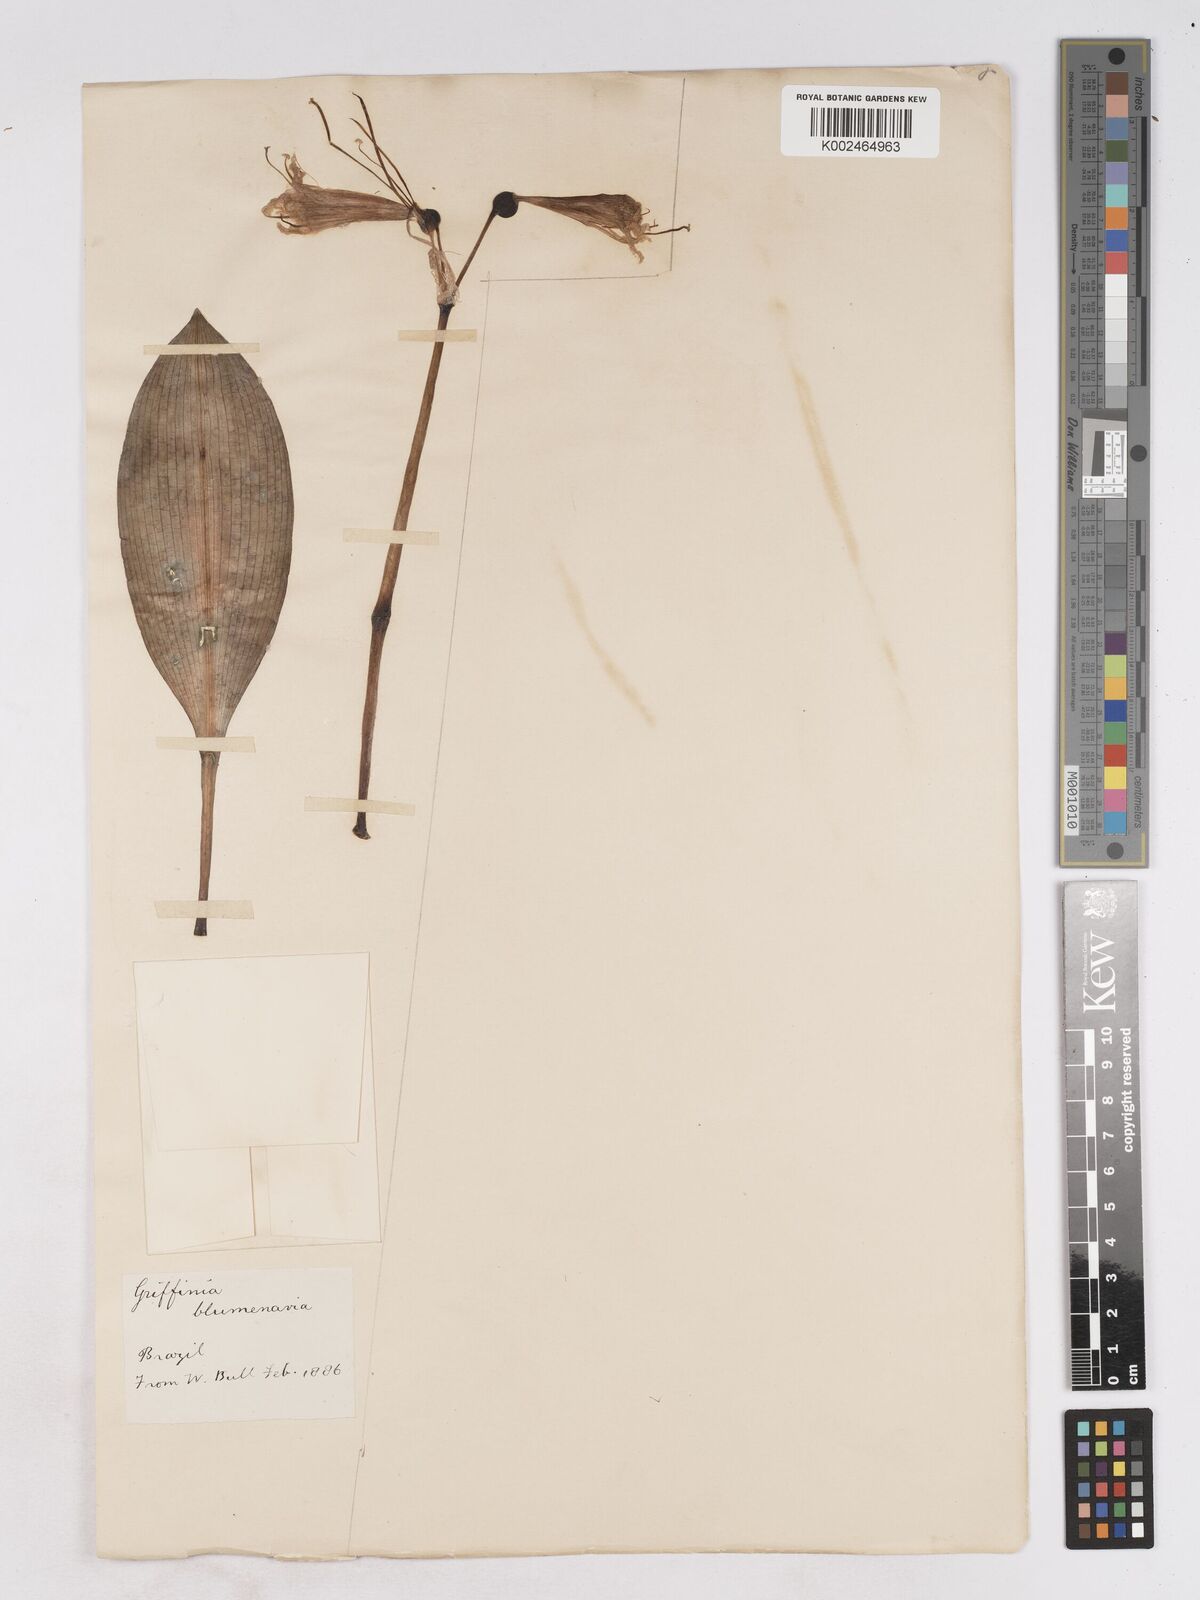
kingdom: Plantae
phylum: Tracheophyta
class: Liliopsida
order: Asparagales
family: Amaryllidaceae
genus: Zephyranthes
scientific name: Zephyranthes blumenavia
